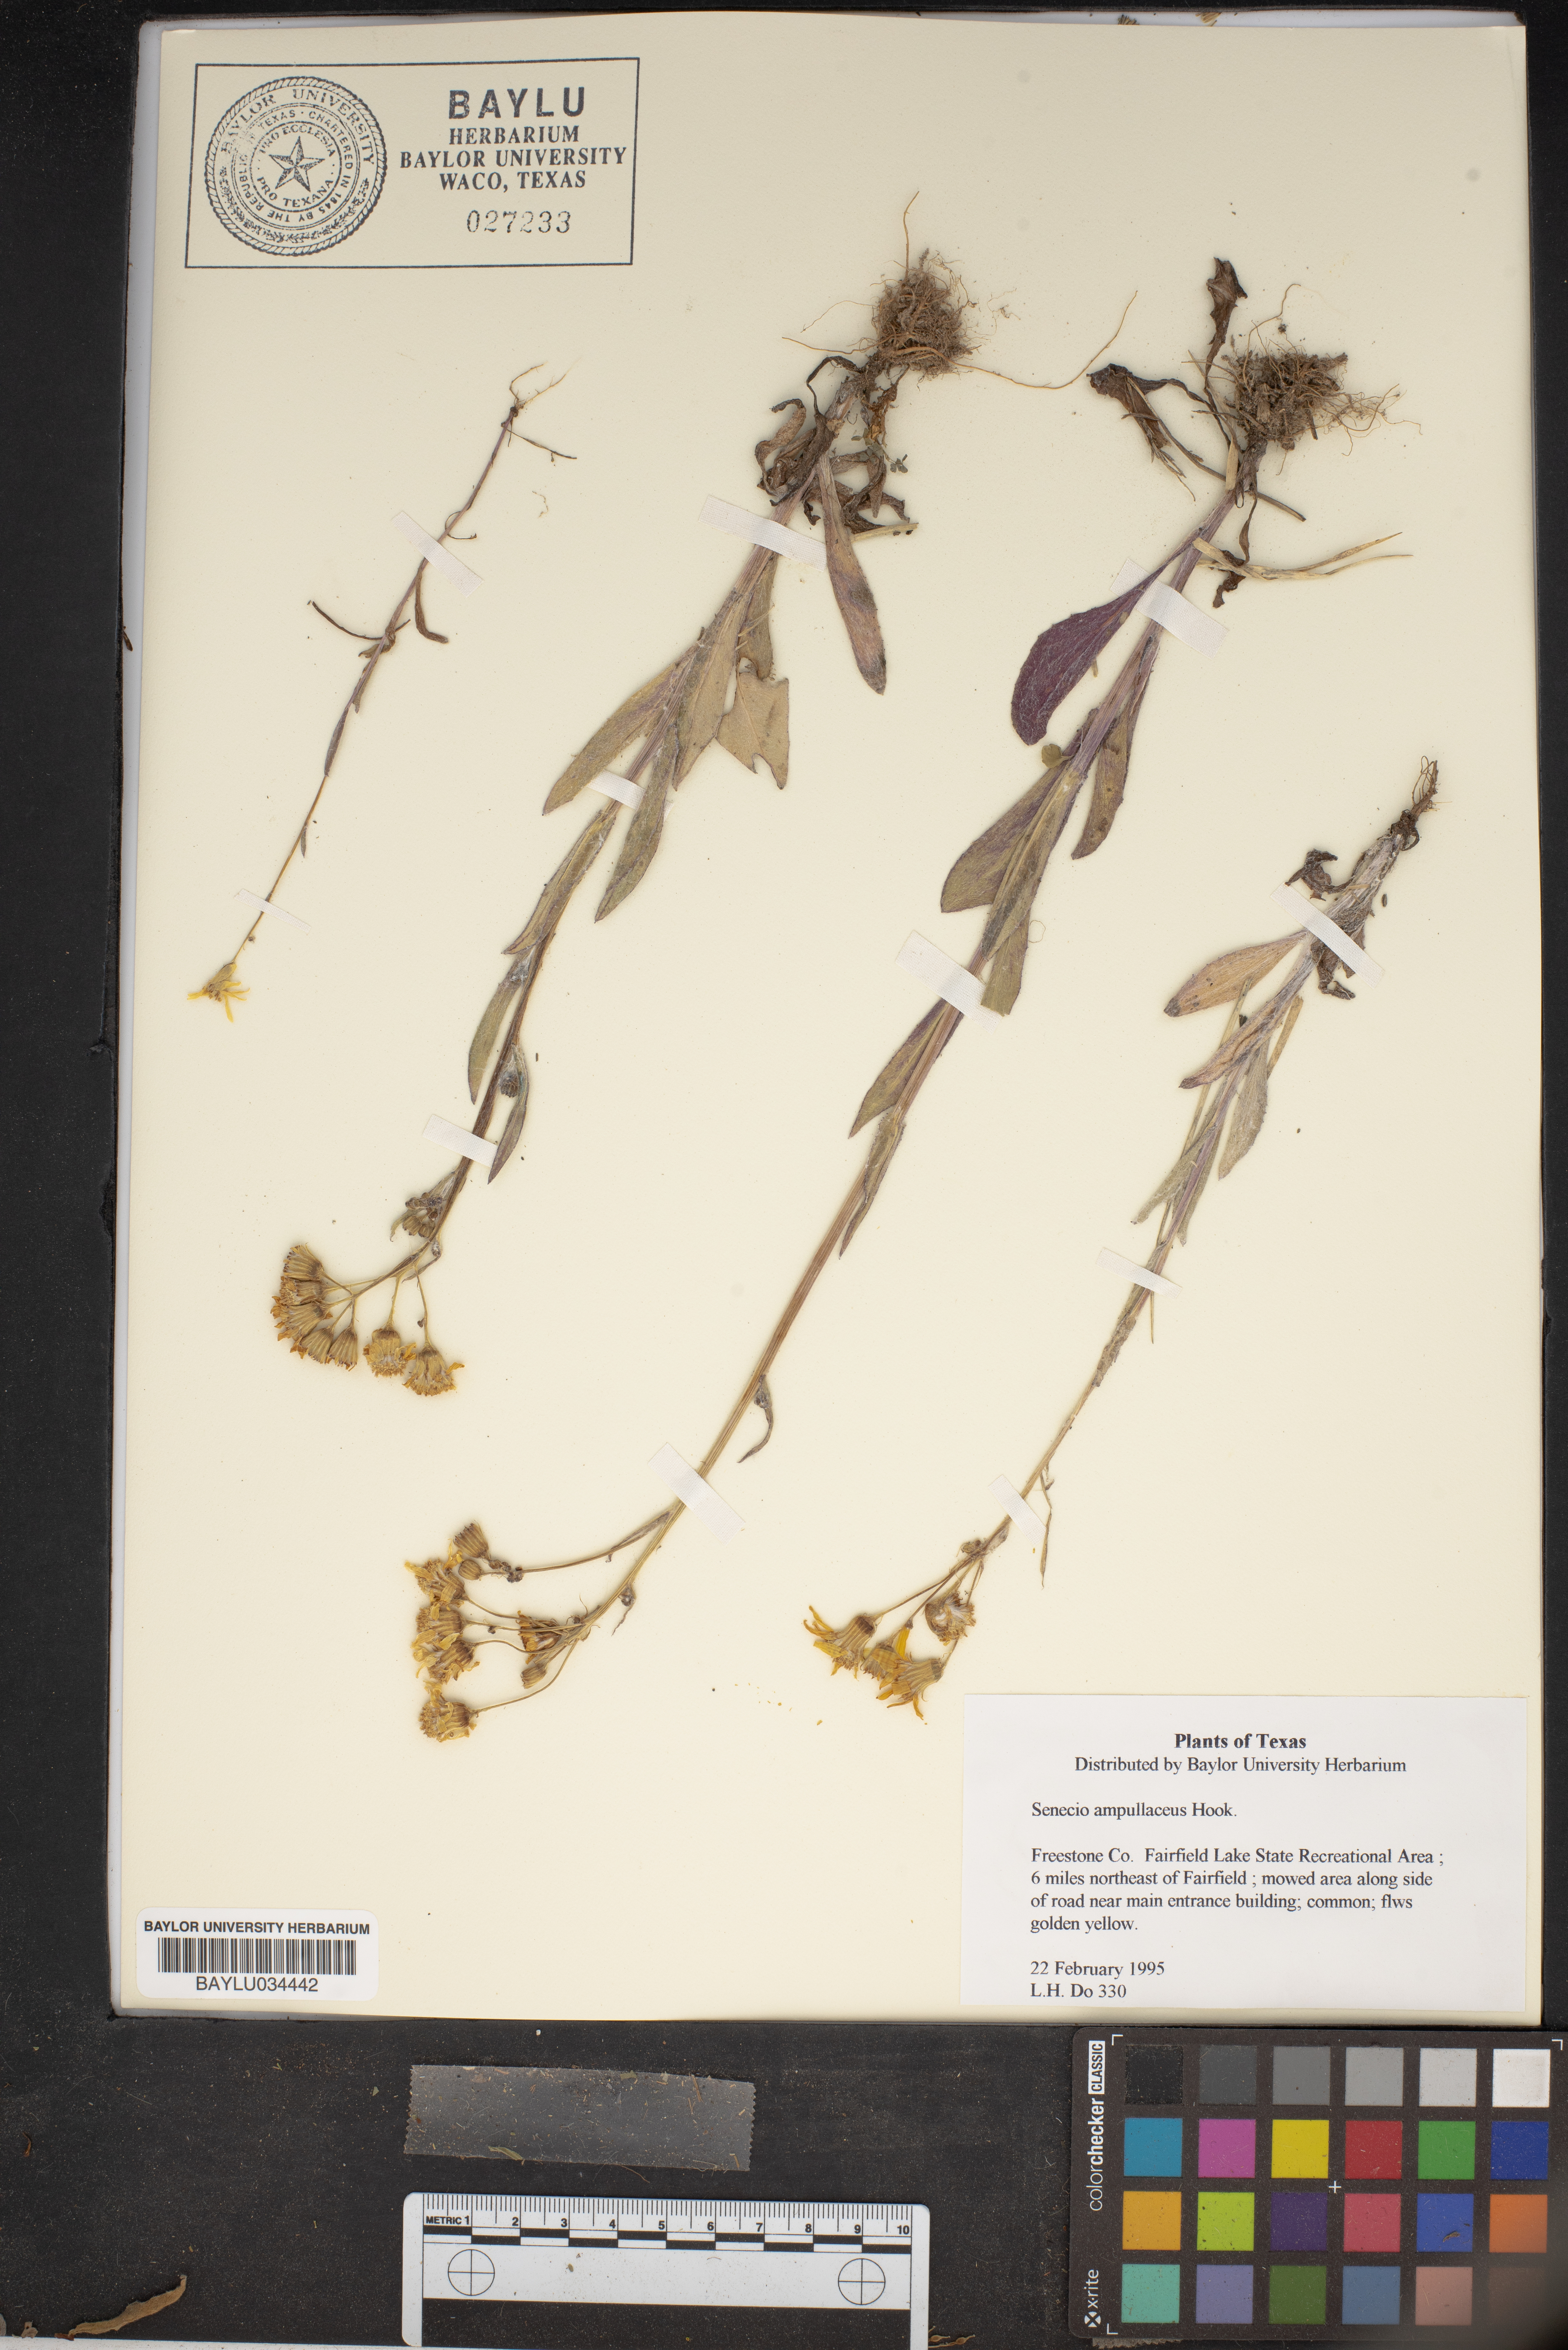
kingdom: Plantae
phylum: Tracheophyta
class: Magnoliopsida
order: Asterales
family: Asteraceae
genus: Senecio
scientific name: Senecio ampullaceus
